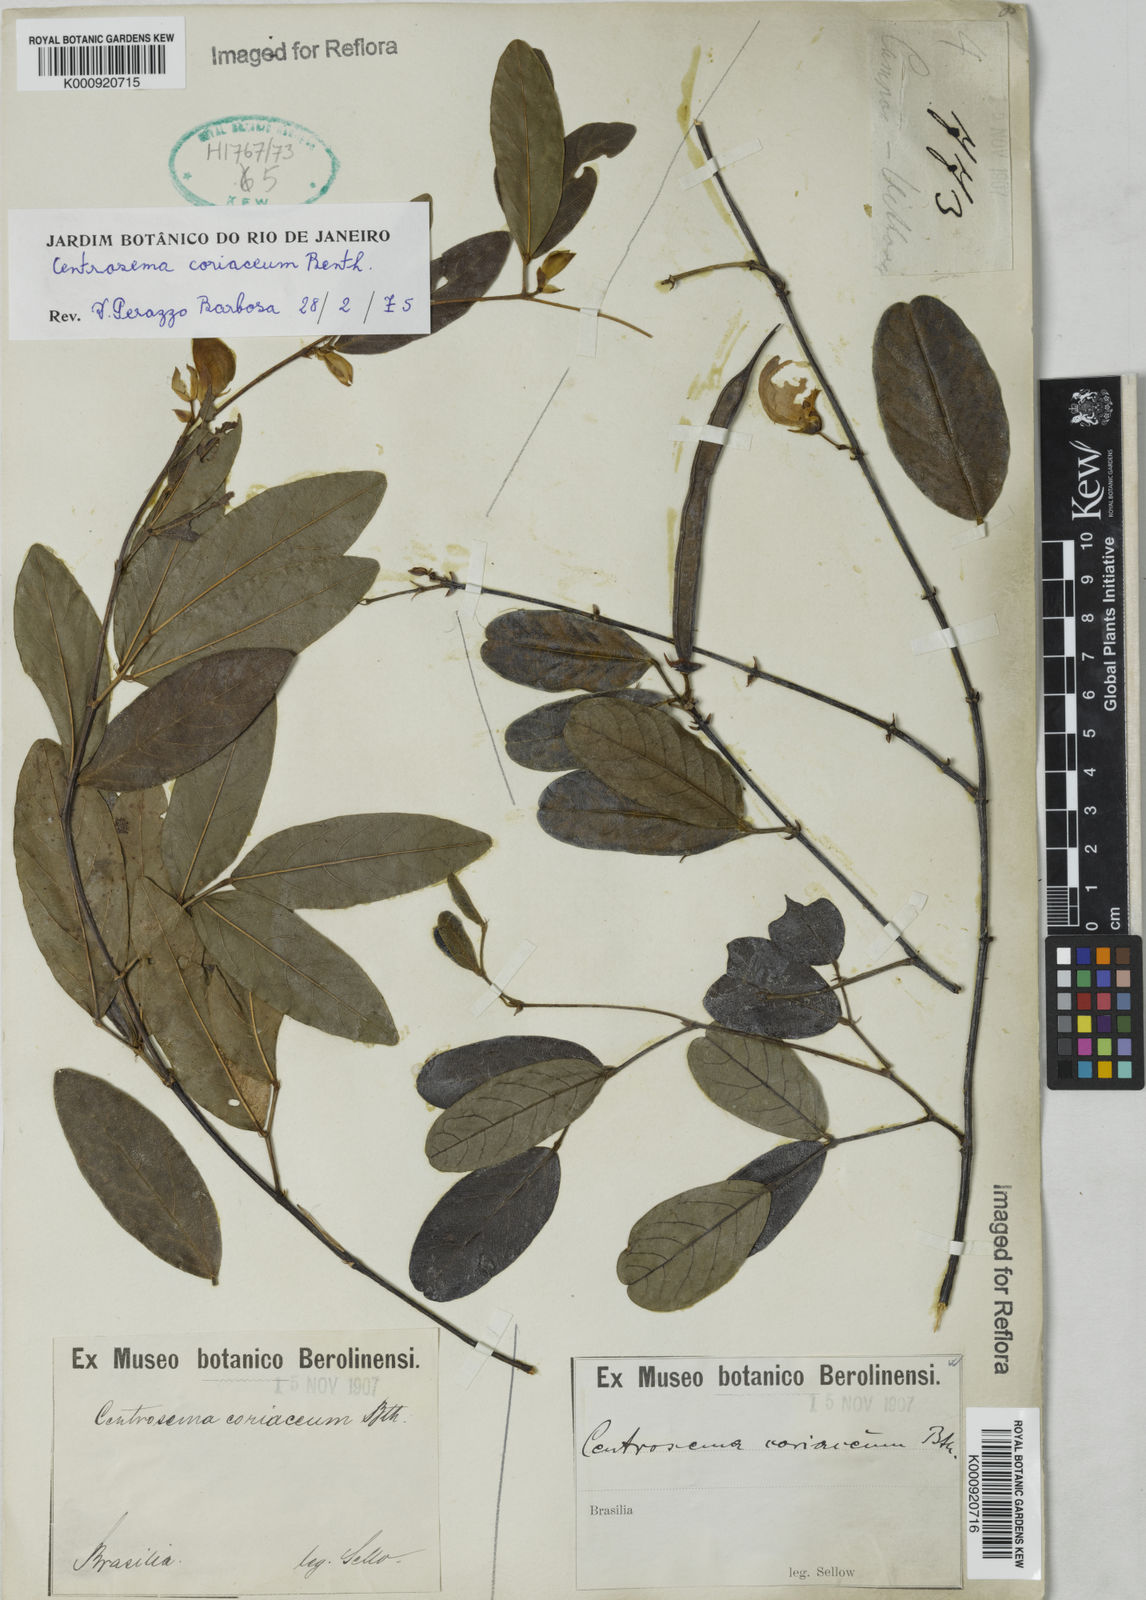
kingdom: Plantae
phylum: Tracheophyta
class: Magnoliopsida
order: Fabales
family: Fabaceae
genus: Centrosema
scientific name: Centrosema coriaceum
